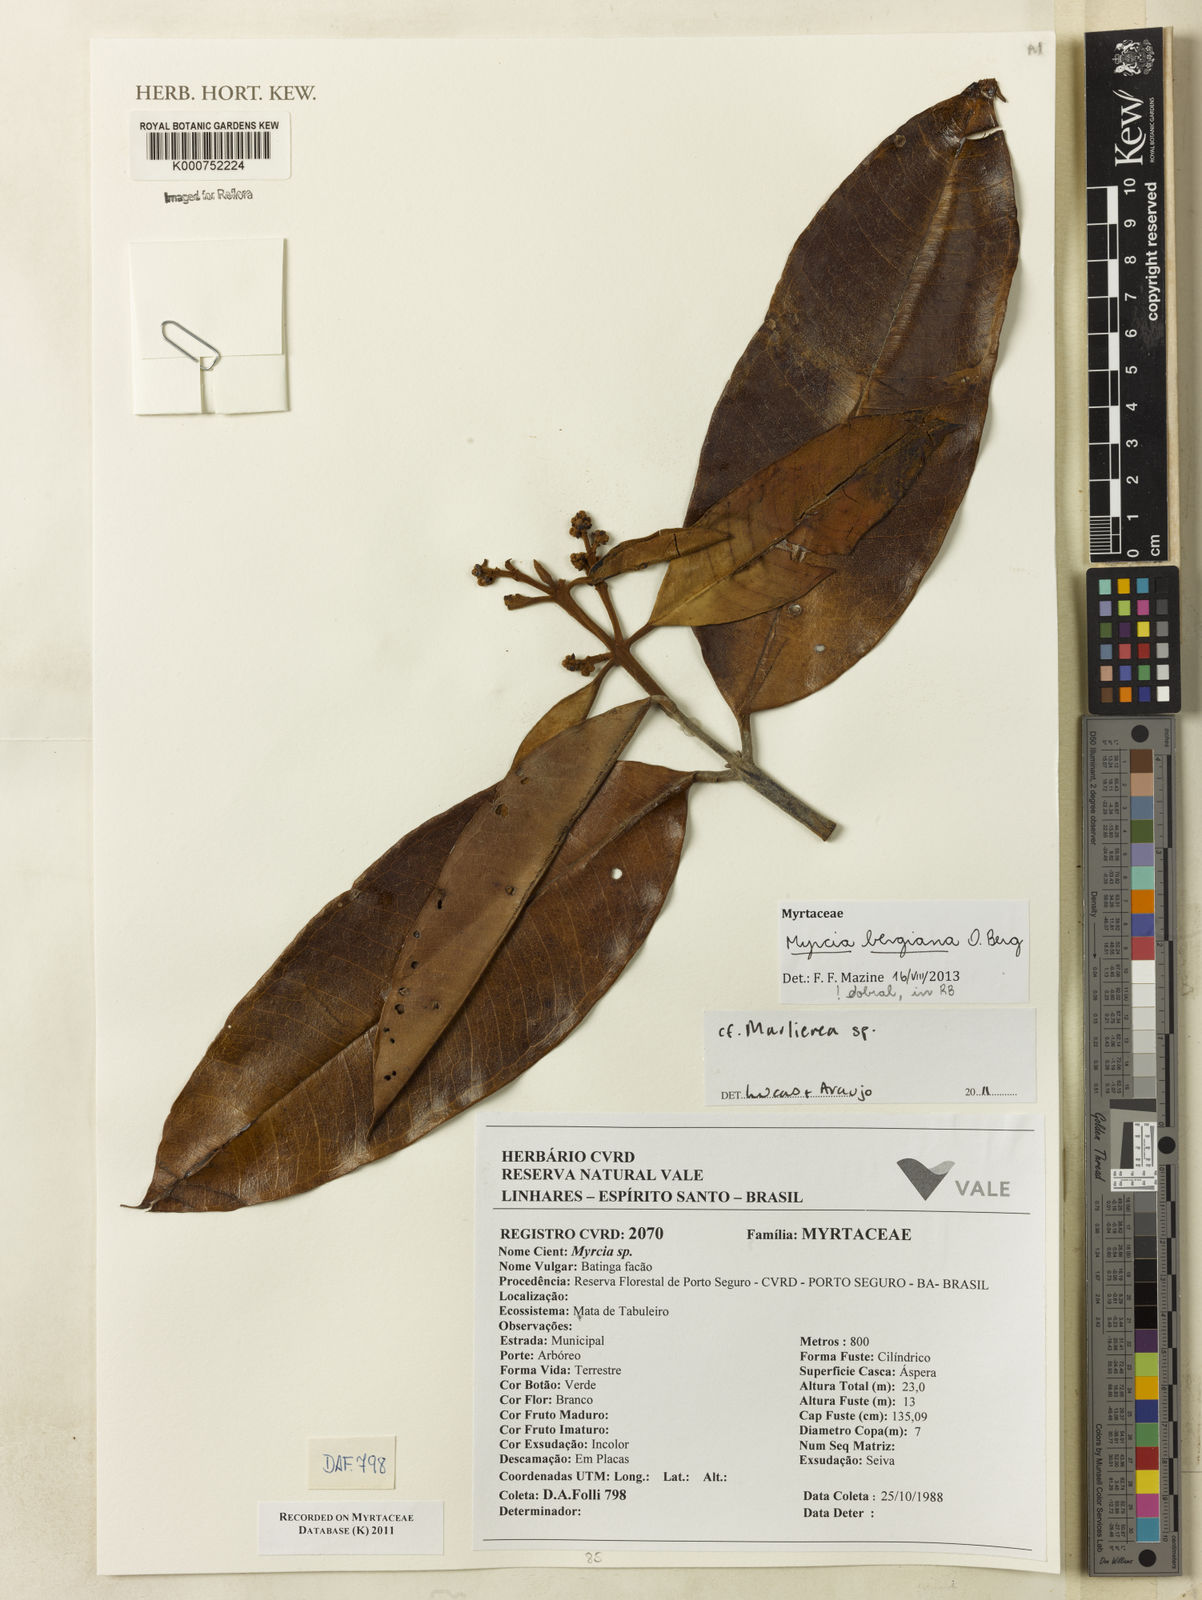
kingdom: Plantae
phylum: Tracheophyta
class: Magnoliopsida
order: Myrtales
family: Myrtaceae
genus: Myrcia
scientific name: Myrcia bergiana
